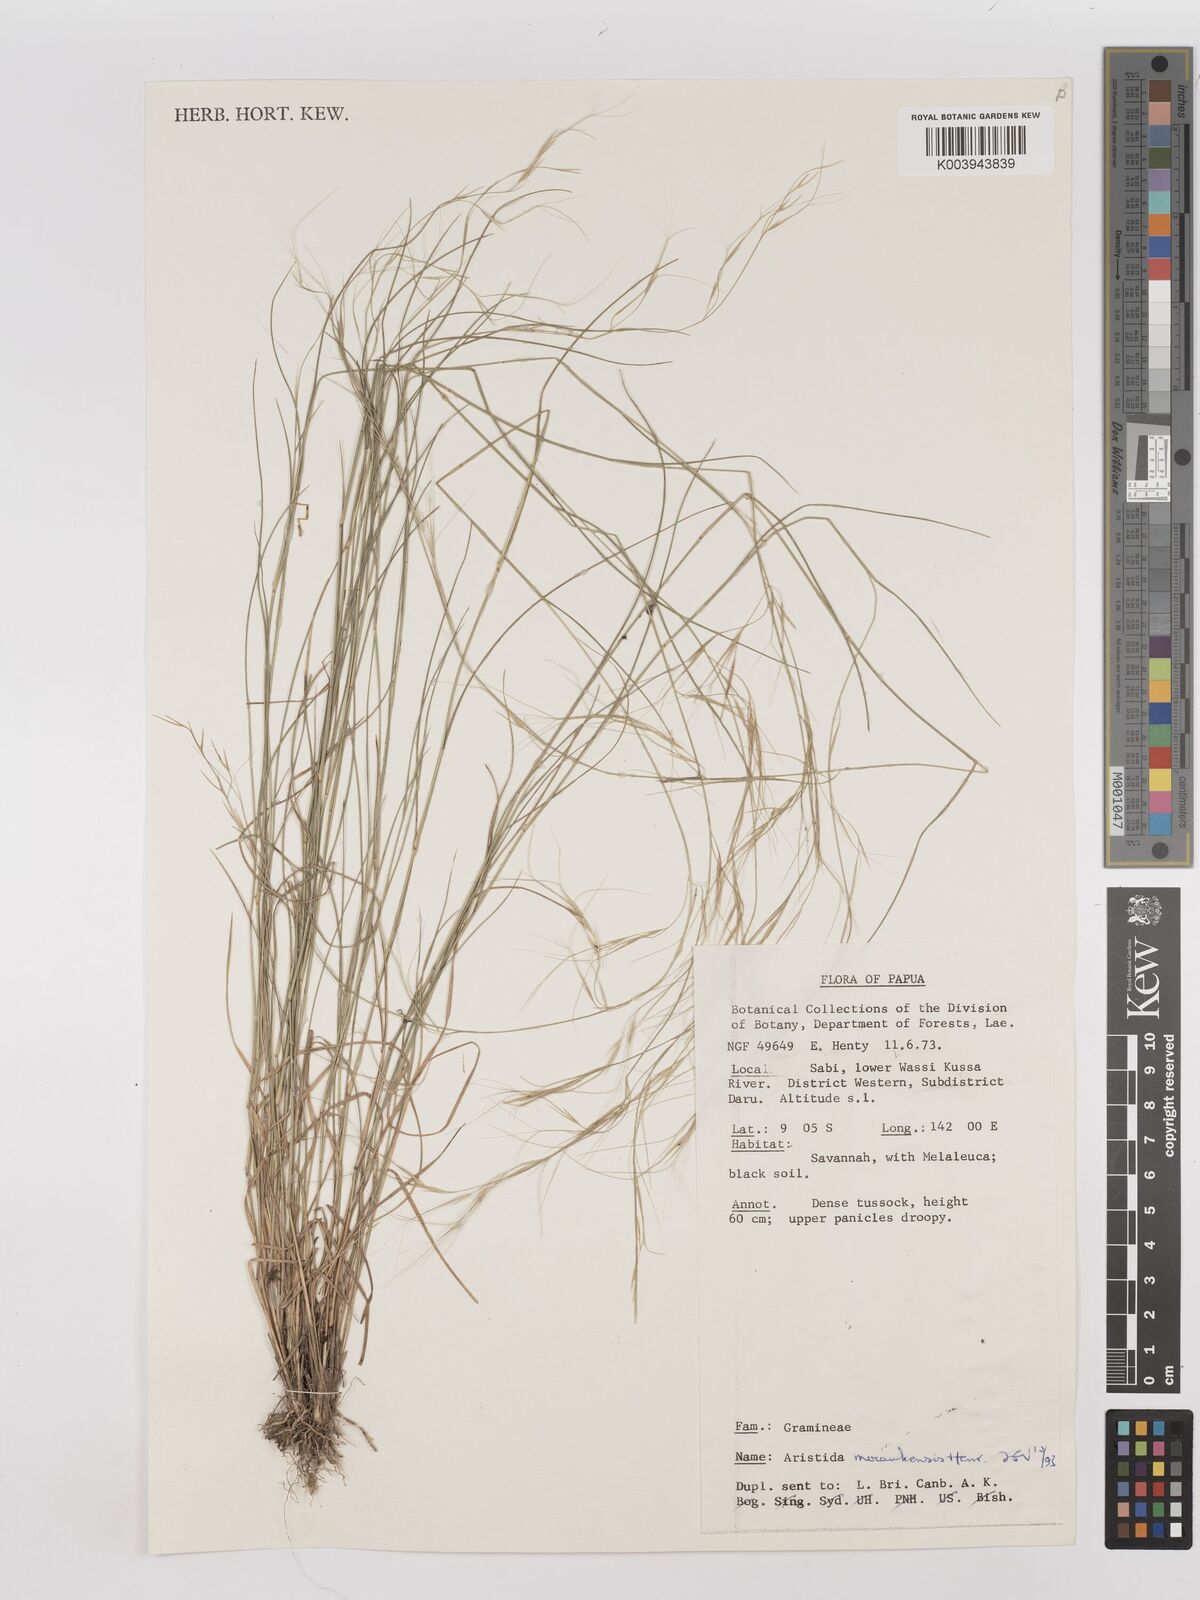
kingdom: Plantae
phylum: Tracheophyta
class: Liliopsida
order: Poales
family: Poaceae
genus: Aristida
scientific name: Aristida meraukensis
